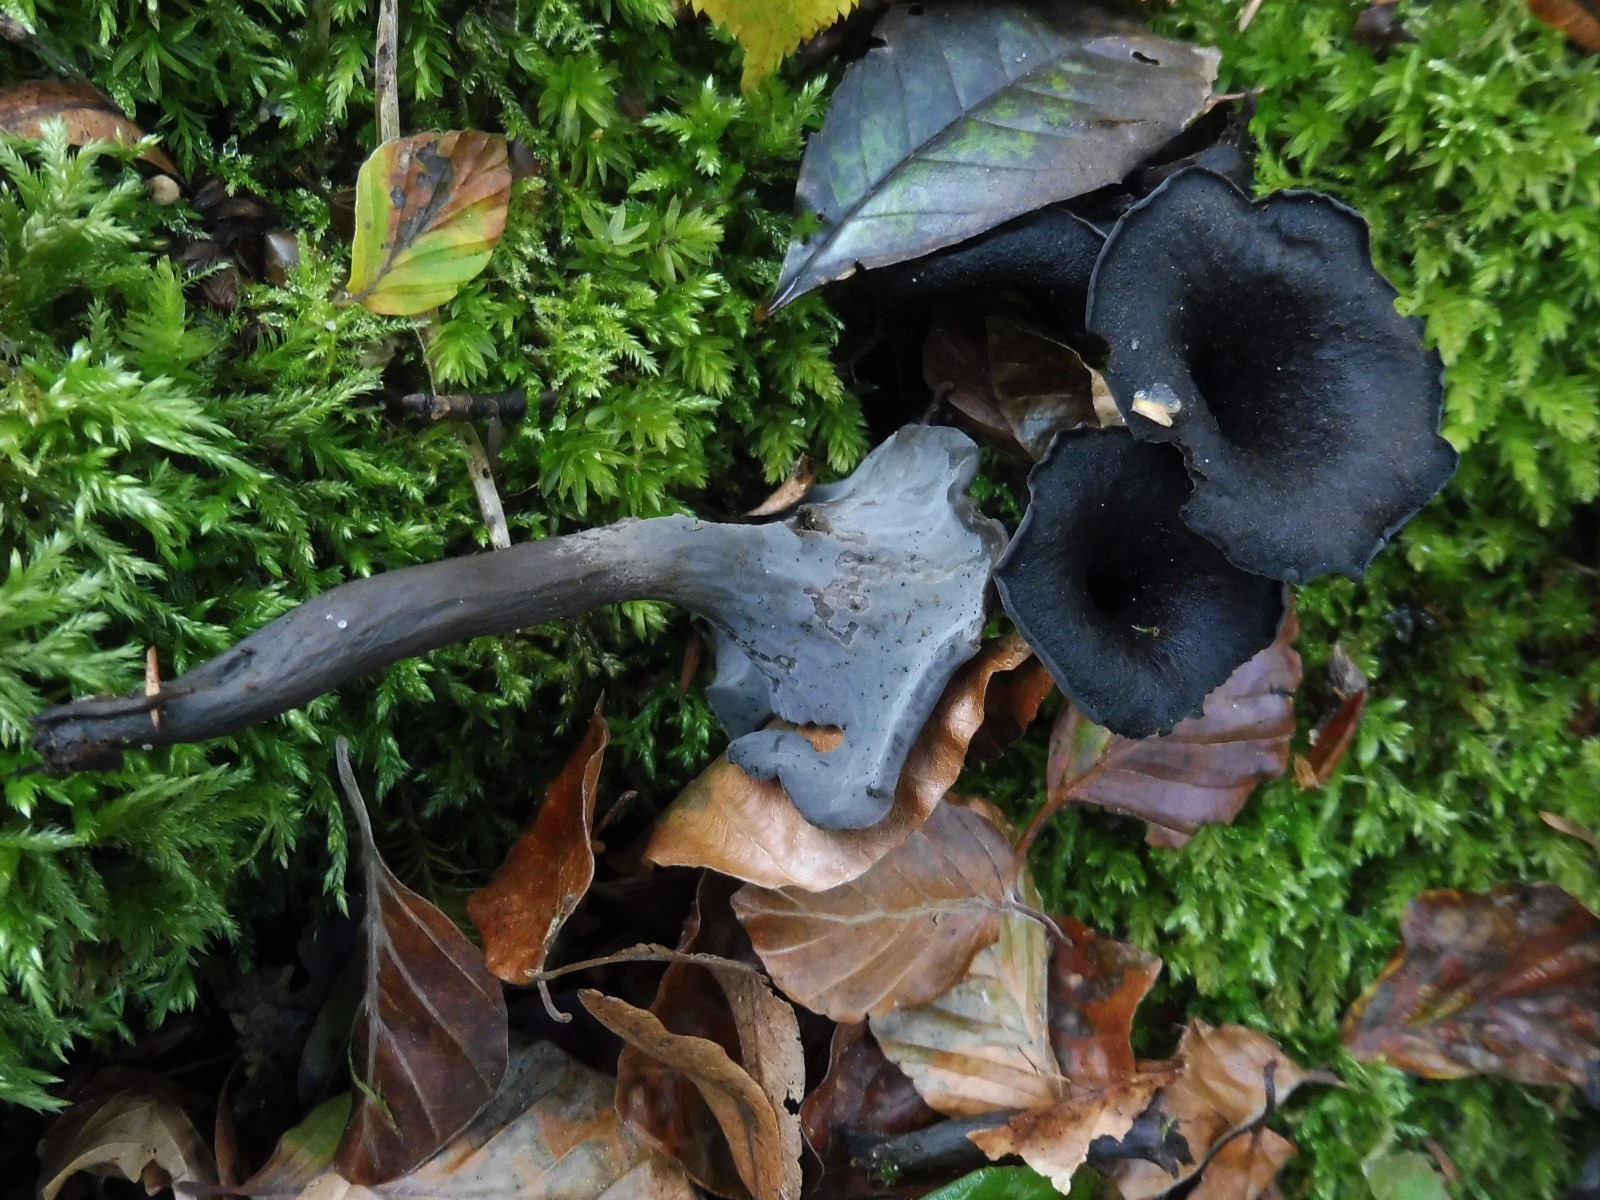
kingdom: Fungi
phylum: Basidiomycota
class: Agaricomycetes
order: Cantharellales
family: Hydnaceae
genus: Craterellus
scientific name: Craterellus cornucopioides
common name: trompetsvamp
